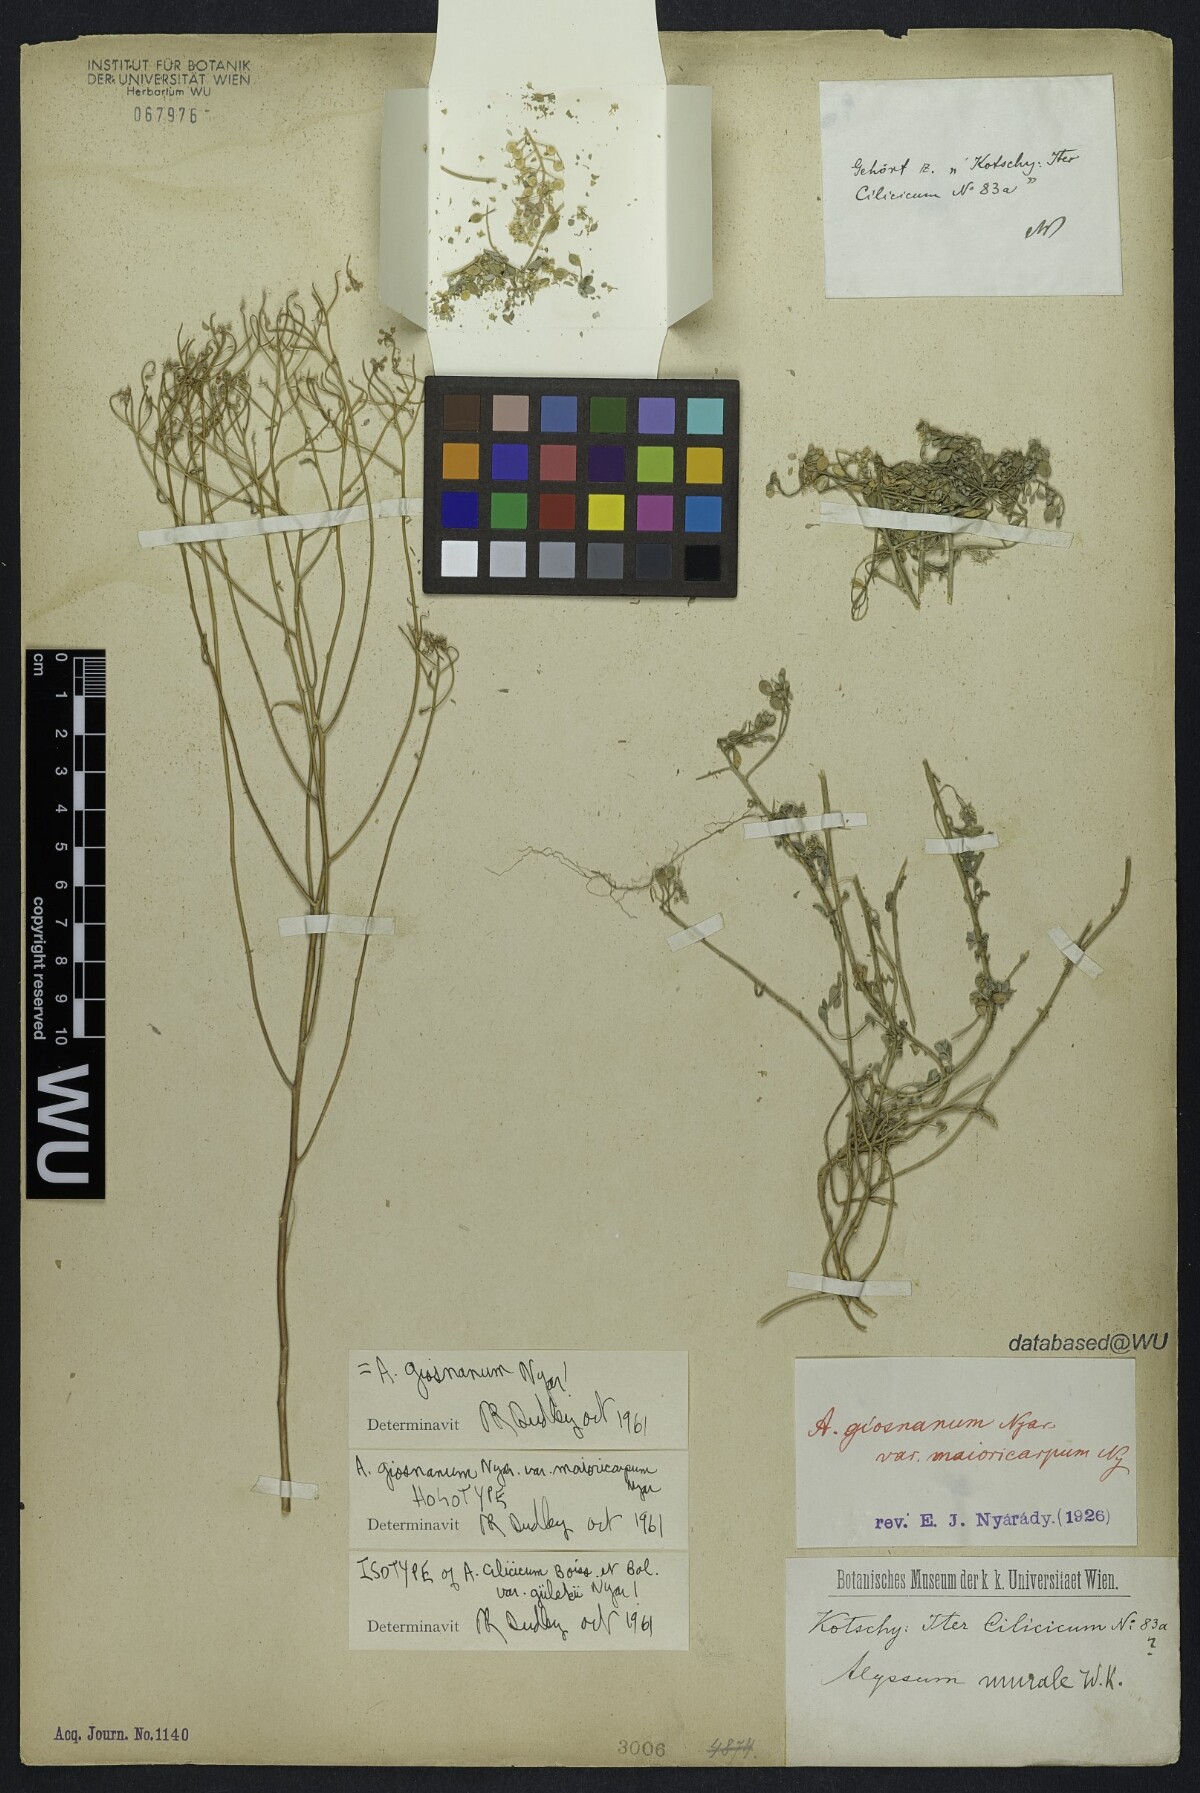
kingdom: Plantae
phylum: Tracheophyta
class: Magnoliopsida
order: Brassicales
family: Brassicaceae
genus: Odontarrhena
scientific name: Odontarrhena giosnana
